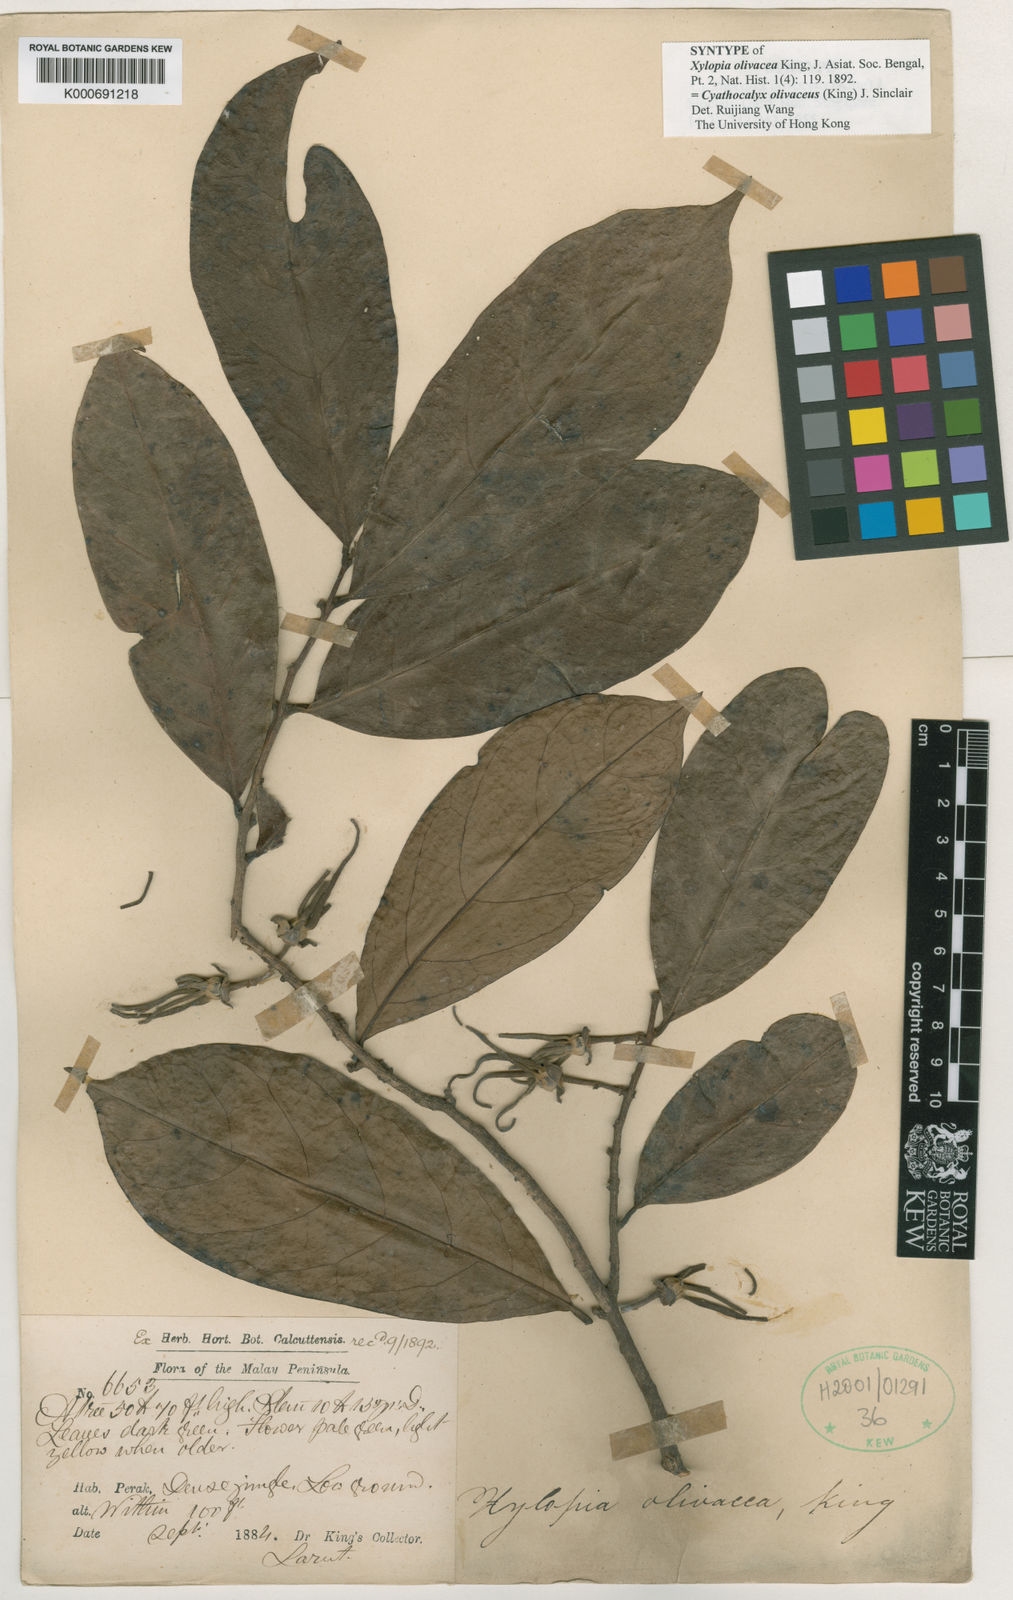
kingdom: Plantae
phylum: Tracheophyta
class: Magnoliopsida
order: Magnoliales
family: Annonaceae
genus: Drepananthus
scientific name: Drepananthus olivaceus
